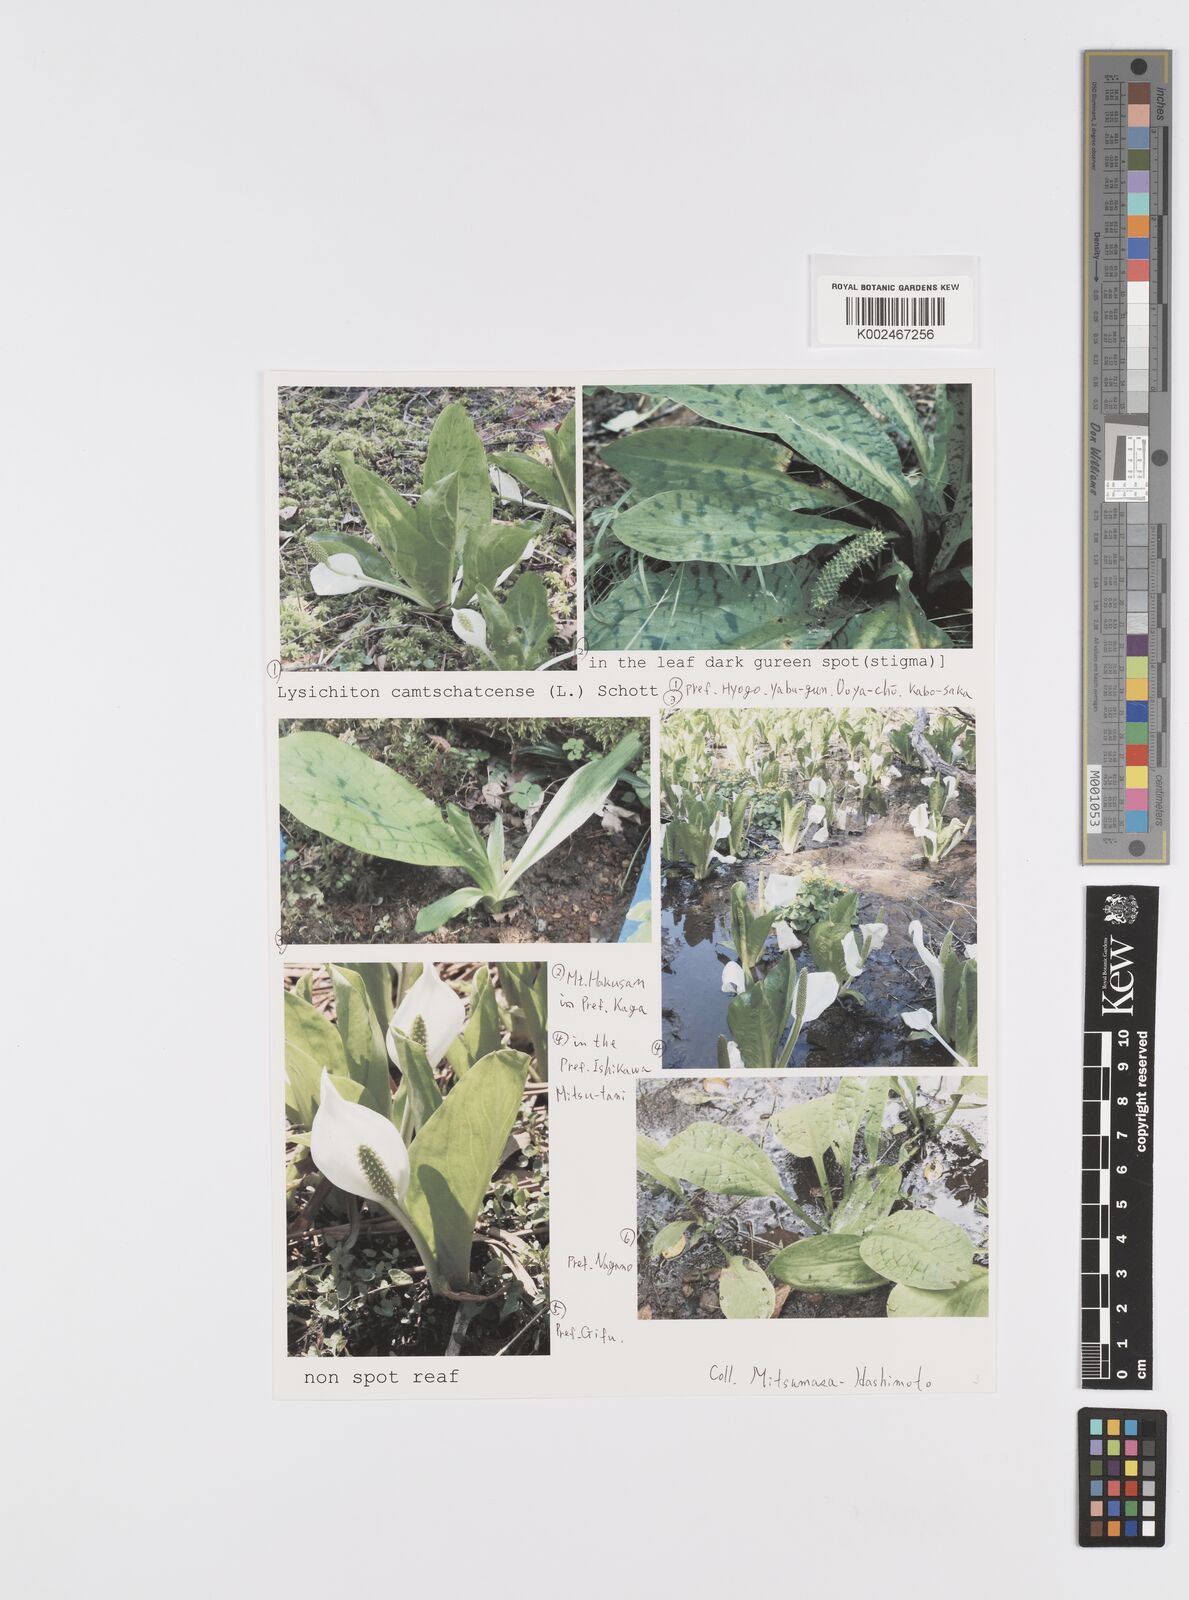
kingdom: Plantae
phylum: Tracheophyta
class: Liliopsida
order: Alismatales
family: Araceae
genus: Lysichiton
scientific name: Lysichiton camtschatcensis
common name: Asian skunk-cabbage
